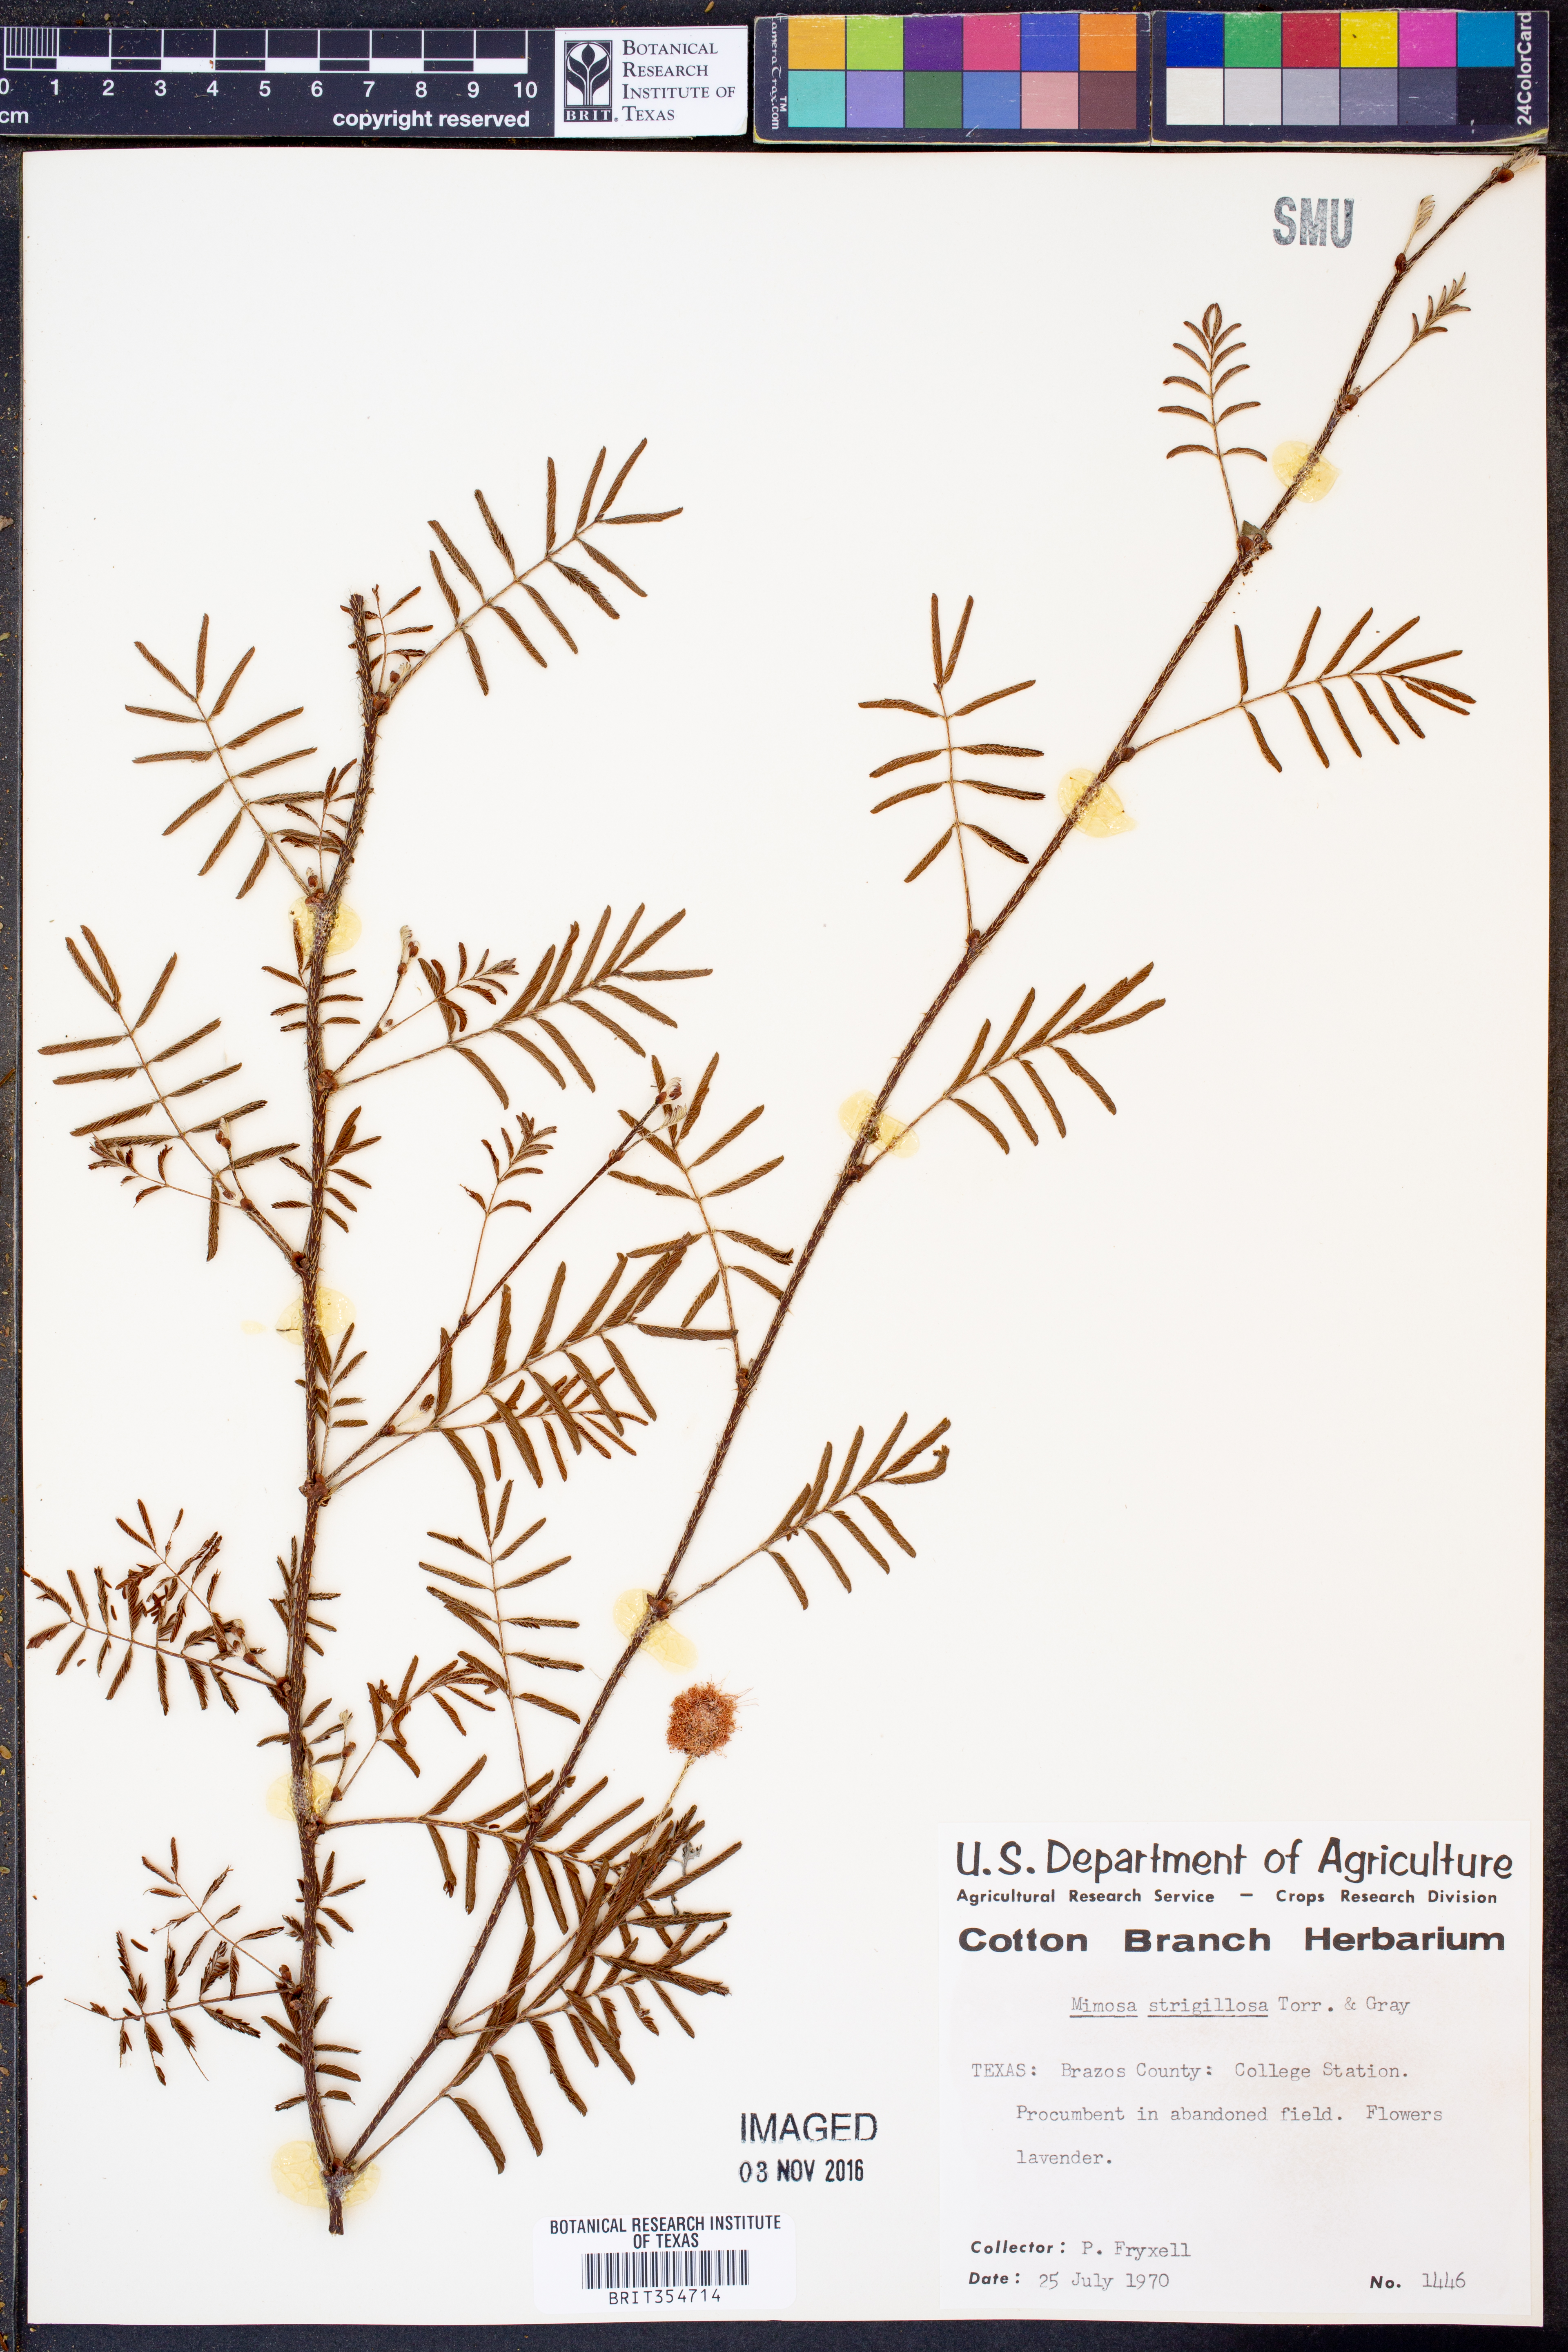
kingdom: Plantae
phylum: Tracheophyta
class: Magnoliopsida
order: Fabales
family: Fabaceae
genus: Mimosa
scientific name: Mimosa strigillosa
